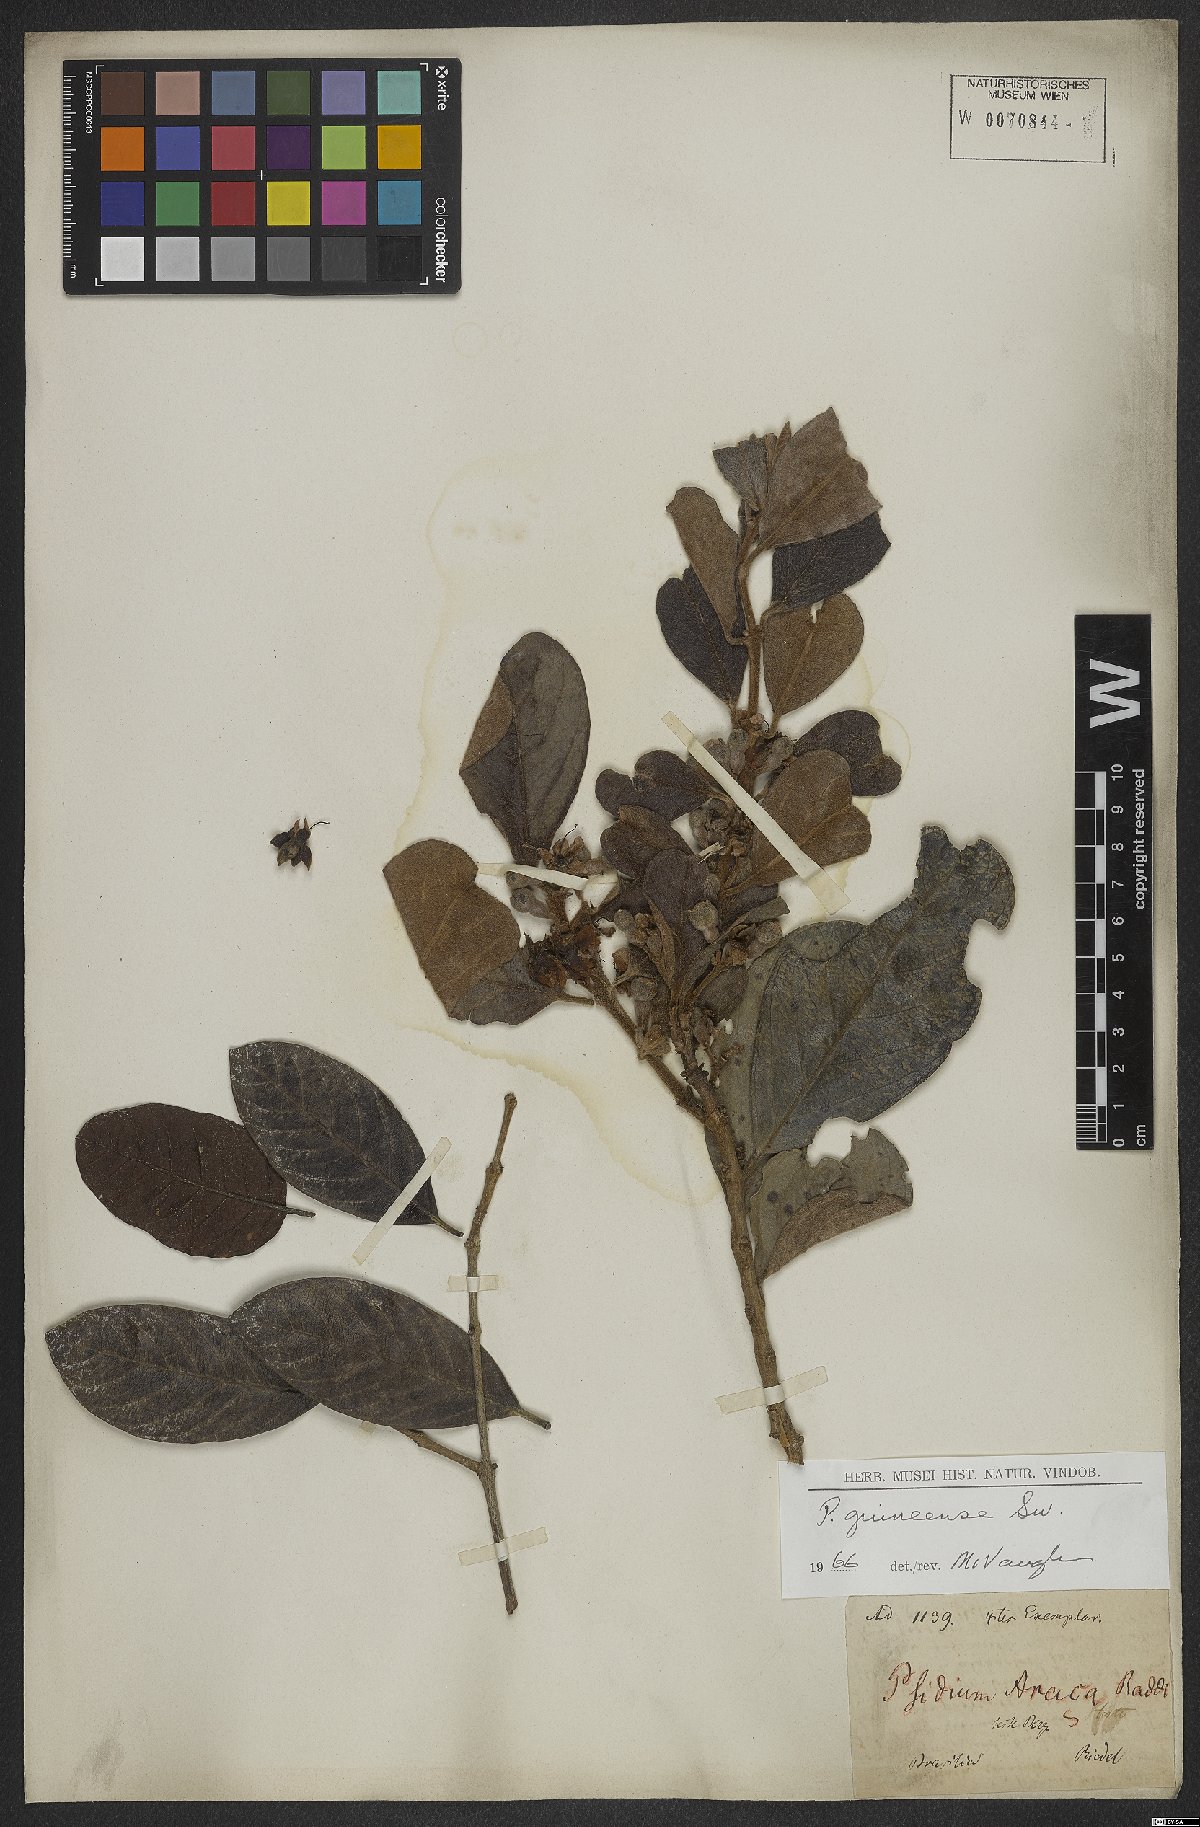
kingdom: Plantae
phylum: Tracheophyta
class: Magnoliopsida
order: Myrtales
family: Myrtaceae
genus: Psidium
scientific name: Psidium guineense
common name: Brazilian guava
